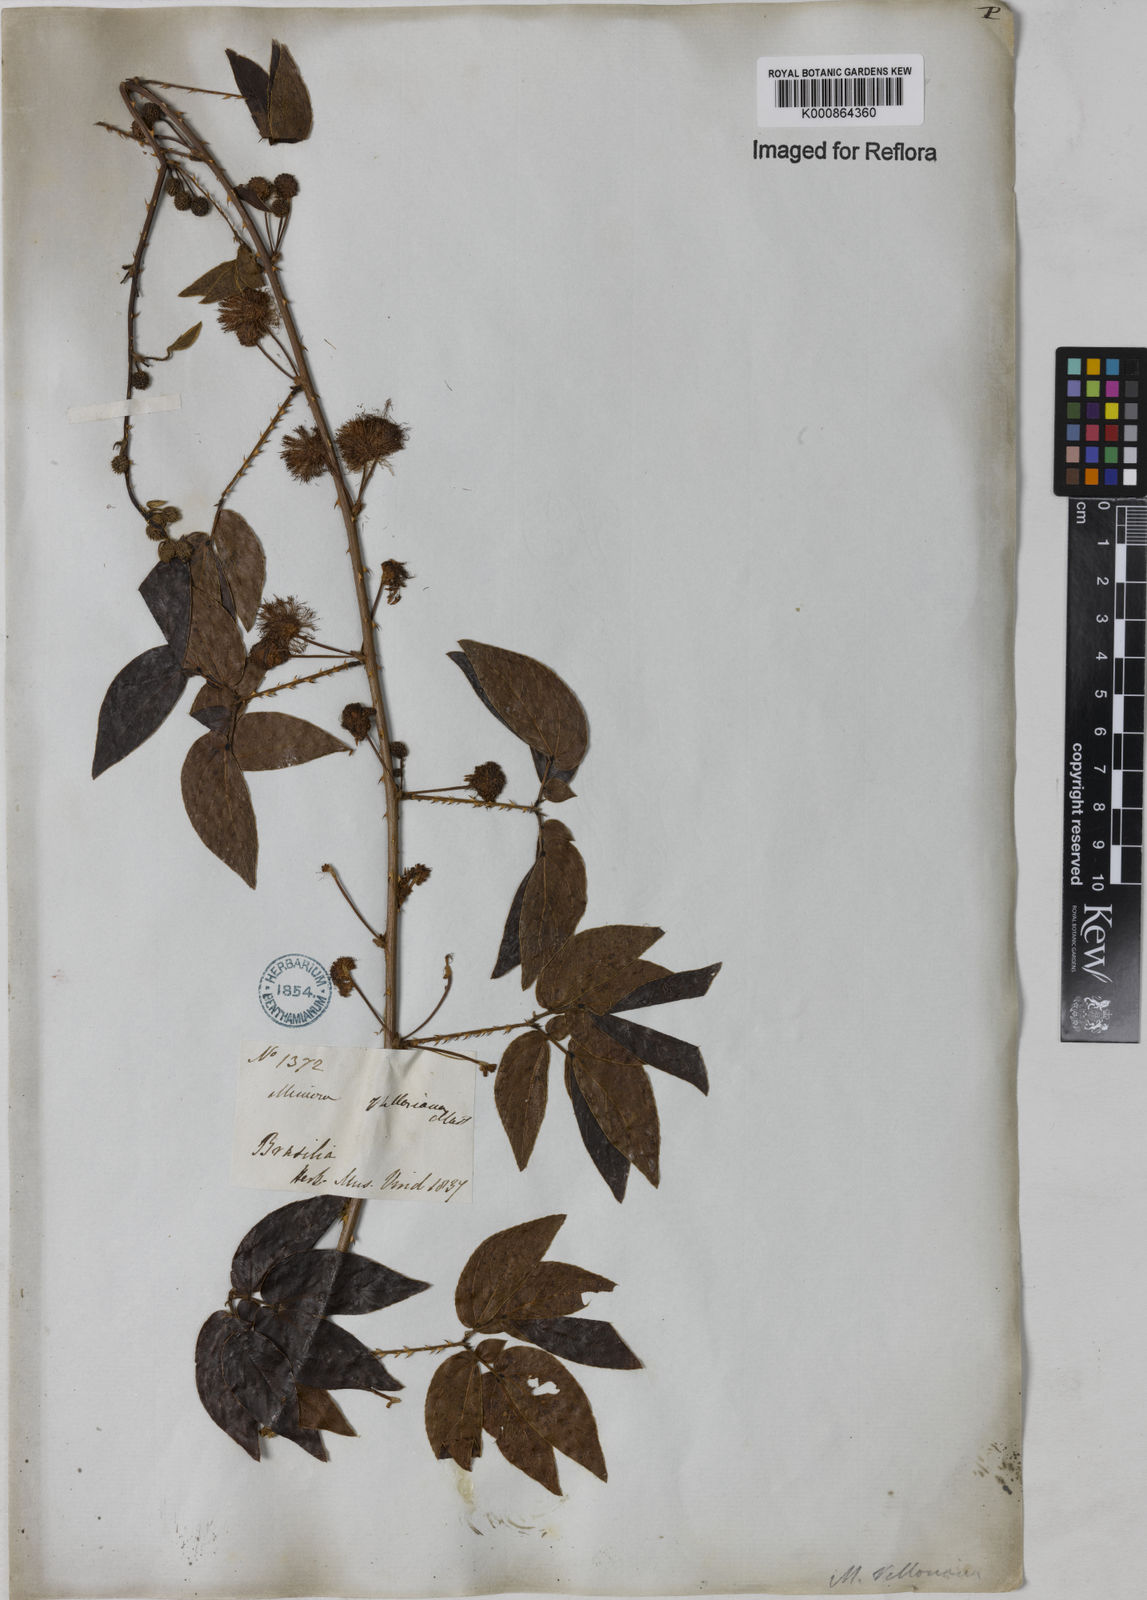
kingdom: Plantae
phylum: Tracheophyta
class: Magnoliopsida
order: Fabales
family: Fabaceae
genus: Mimosa
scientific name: Mimosa velloziana
